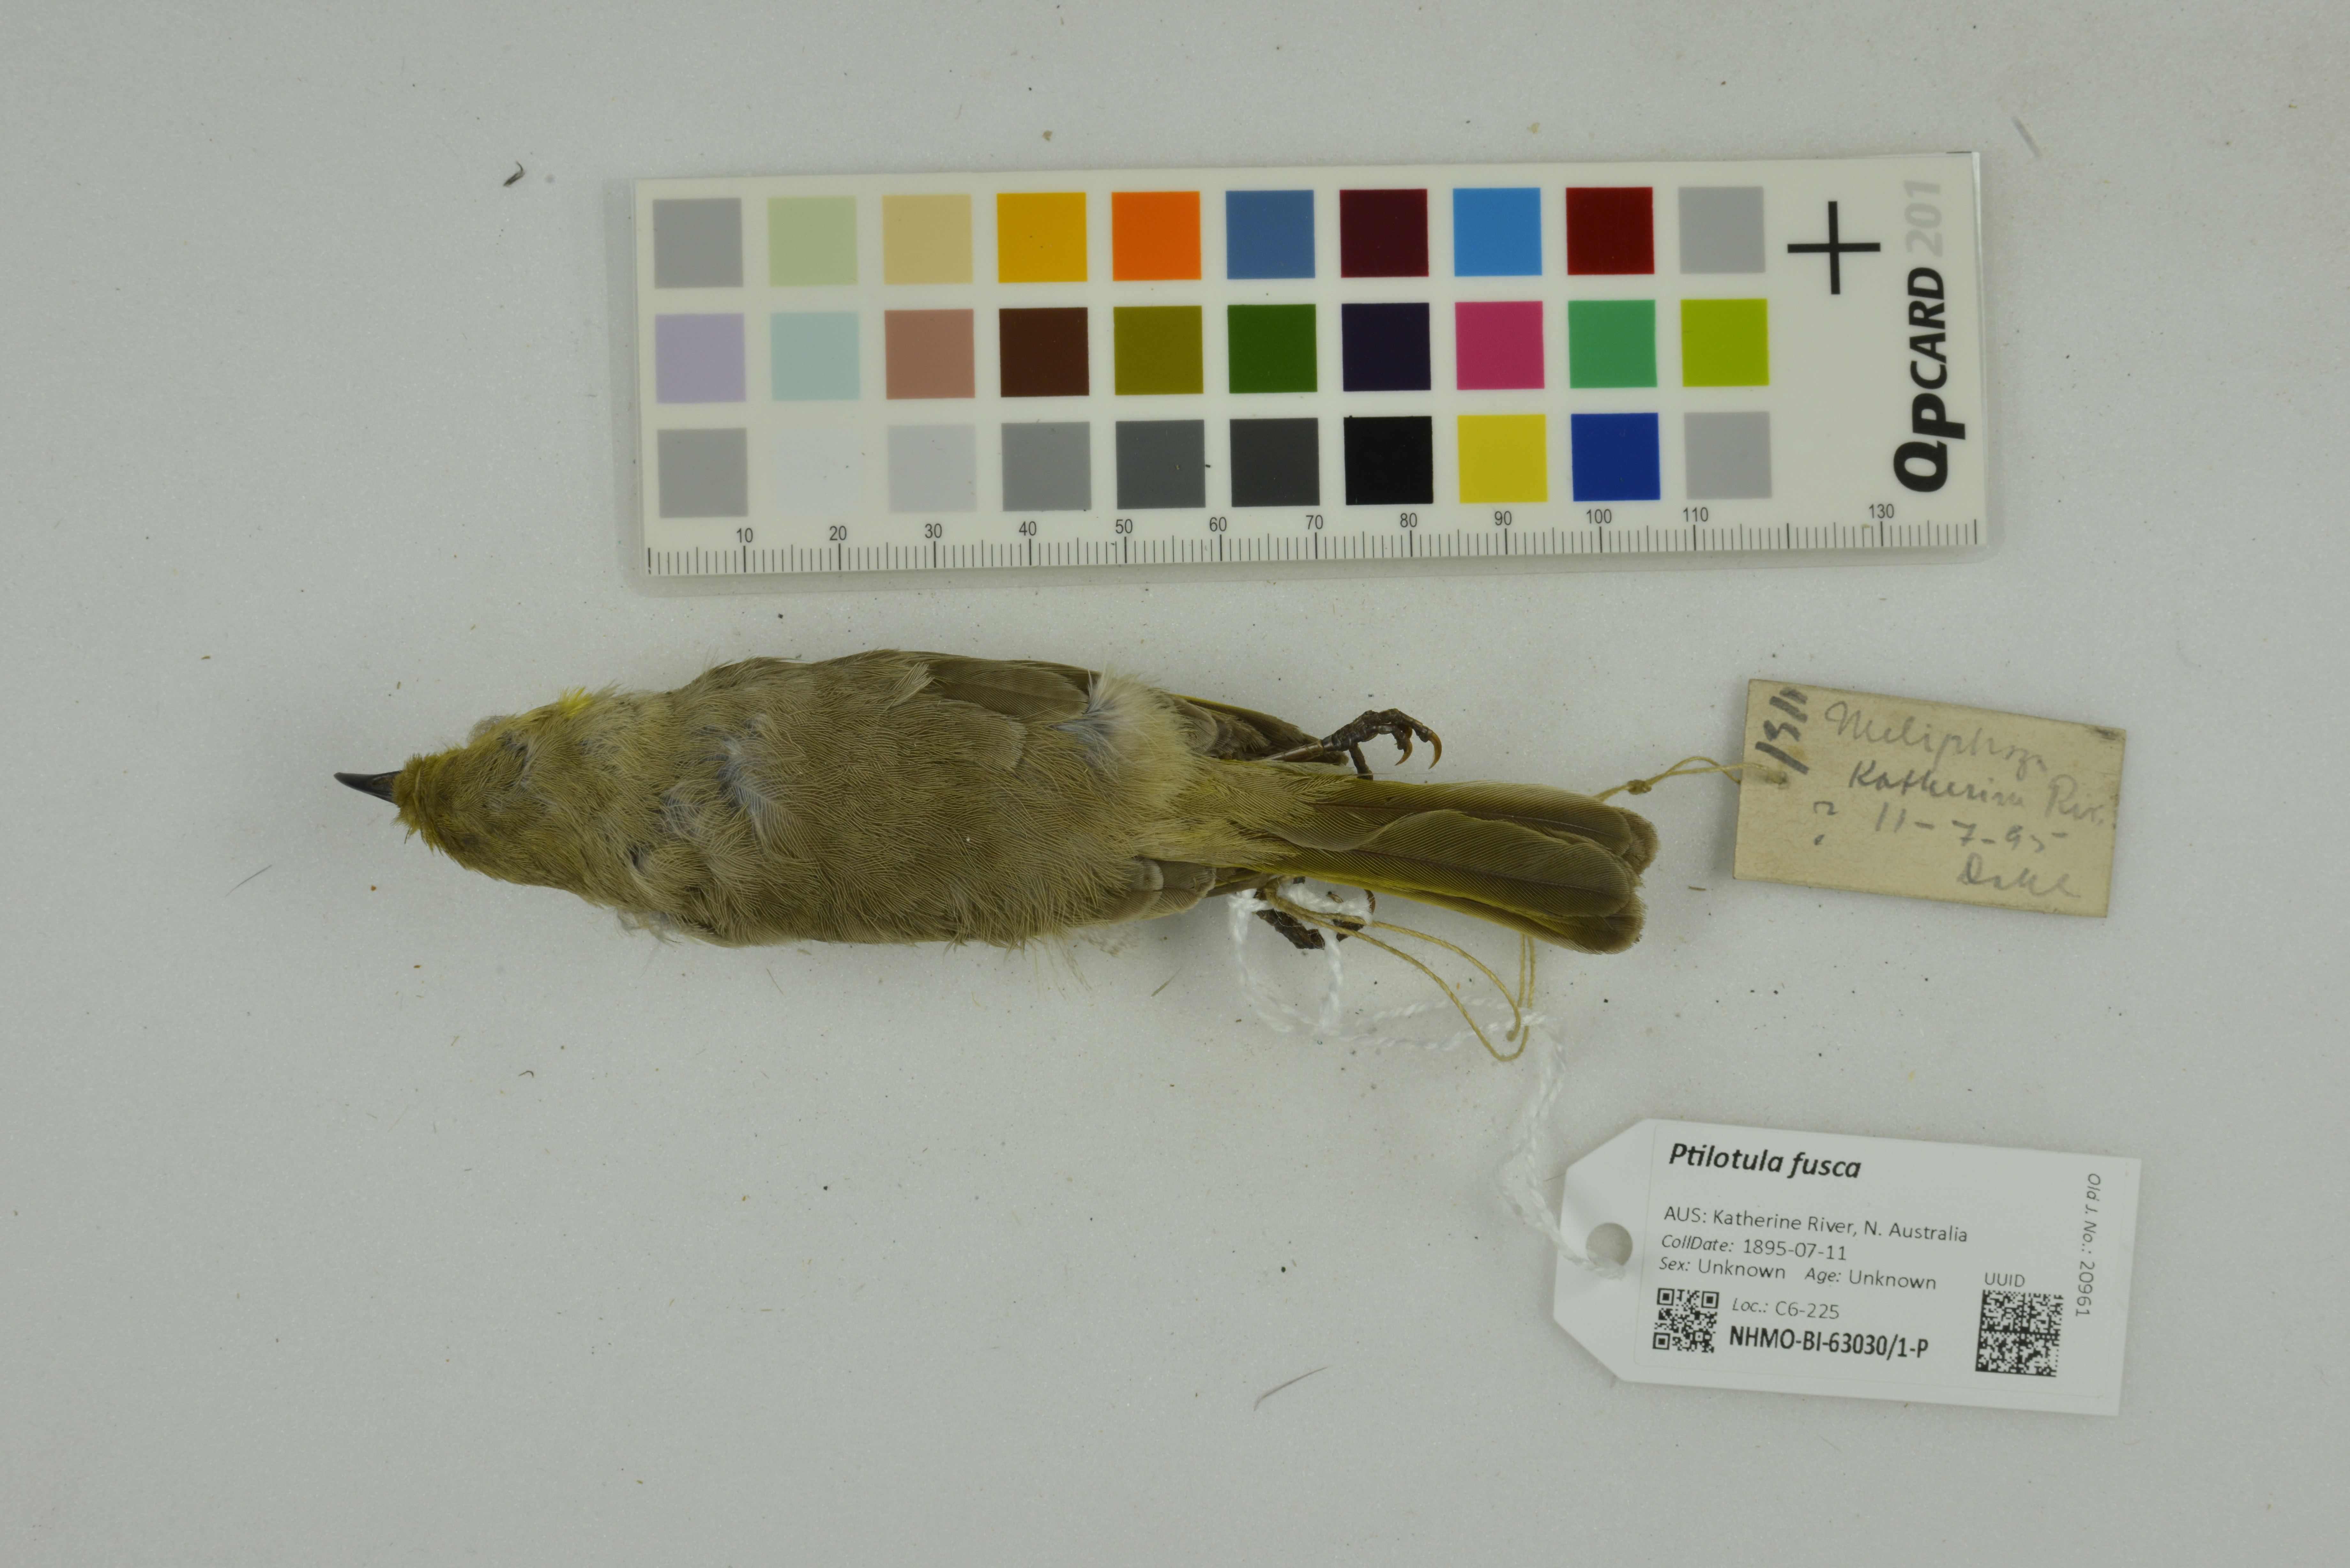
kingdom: Animalia
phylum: Chordata
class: Aves
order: Passeriformes
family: Meliphagidae
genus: Ptilotula
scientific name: Ptilotula fusca
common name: Fuscous honeyeater
